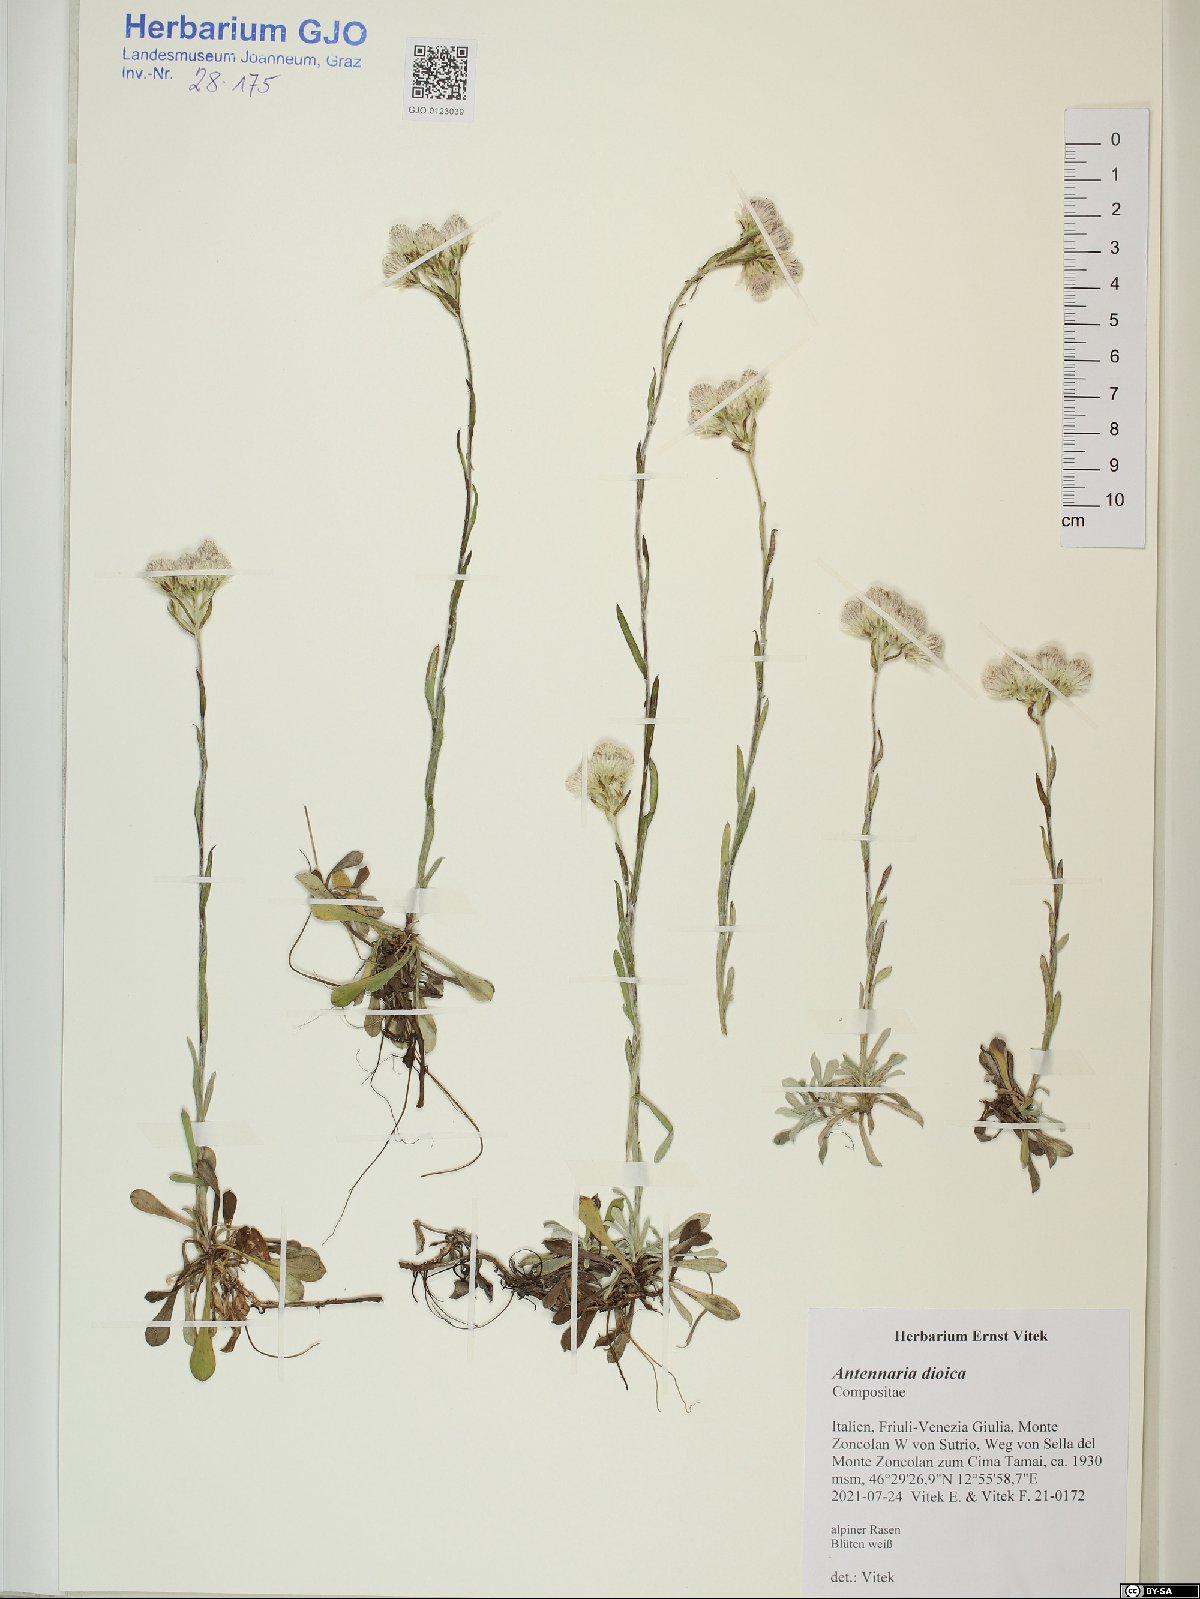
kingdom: Plantae
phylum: Tracheophyta
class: Magnoliopsida
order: Asterales
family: Asteraceae
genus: Antennaria
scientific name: Antennaria dioica
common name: Mountain everlasting
